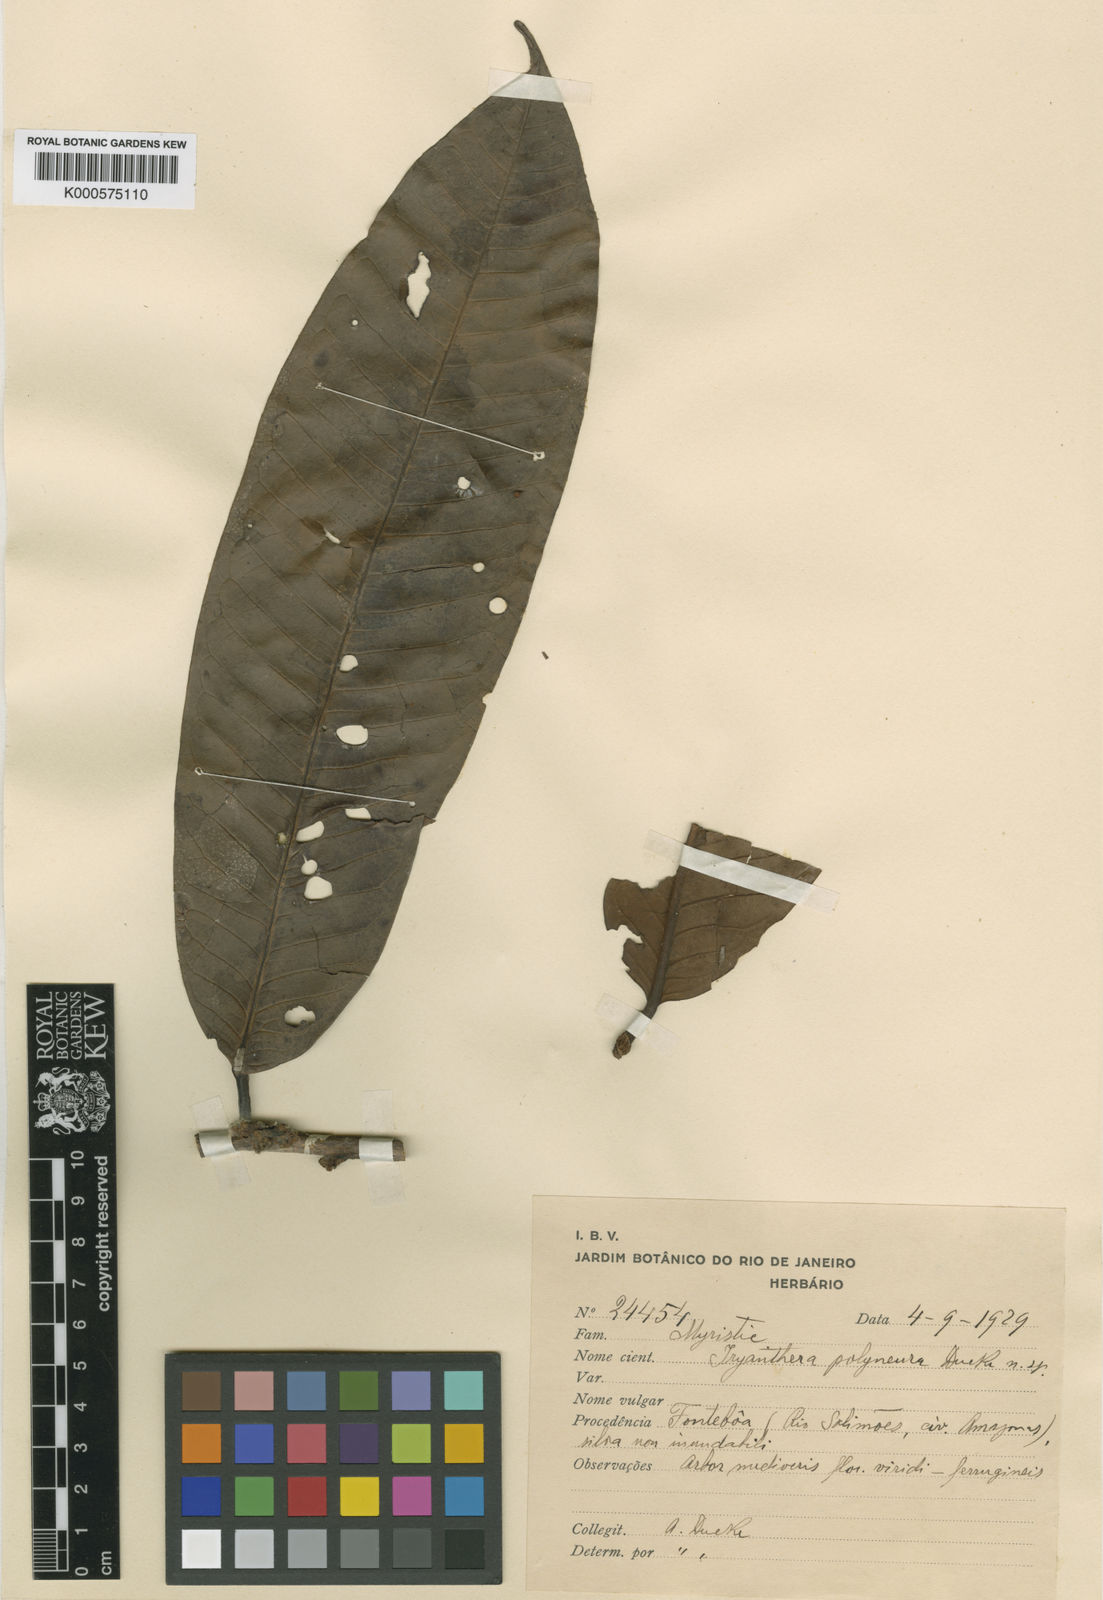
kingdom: Plantae
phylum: Tracheophyta
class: Magnoliopsida
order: Magnoliales
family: Myristicaceae
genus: Iryanthera
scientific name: Iryanthera polyneura
